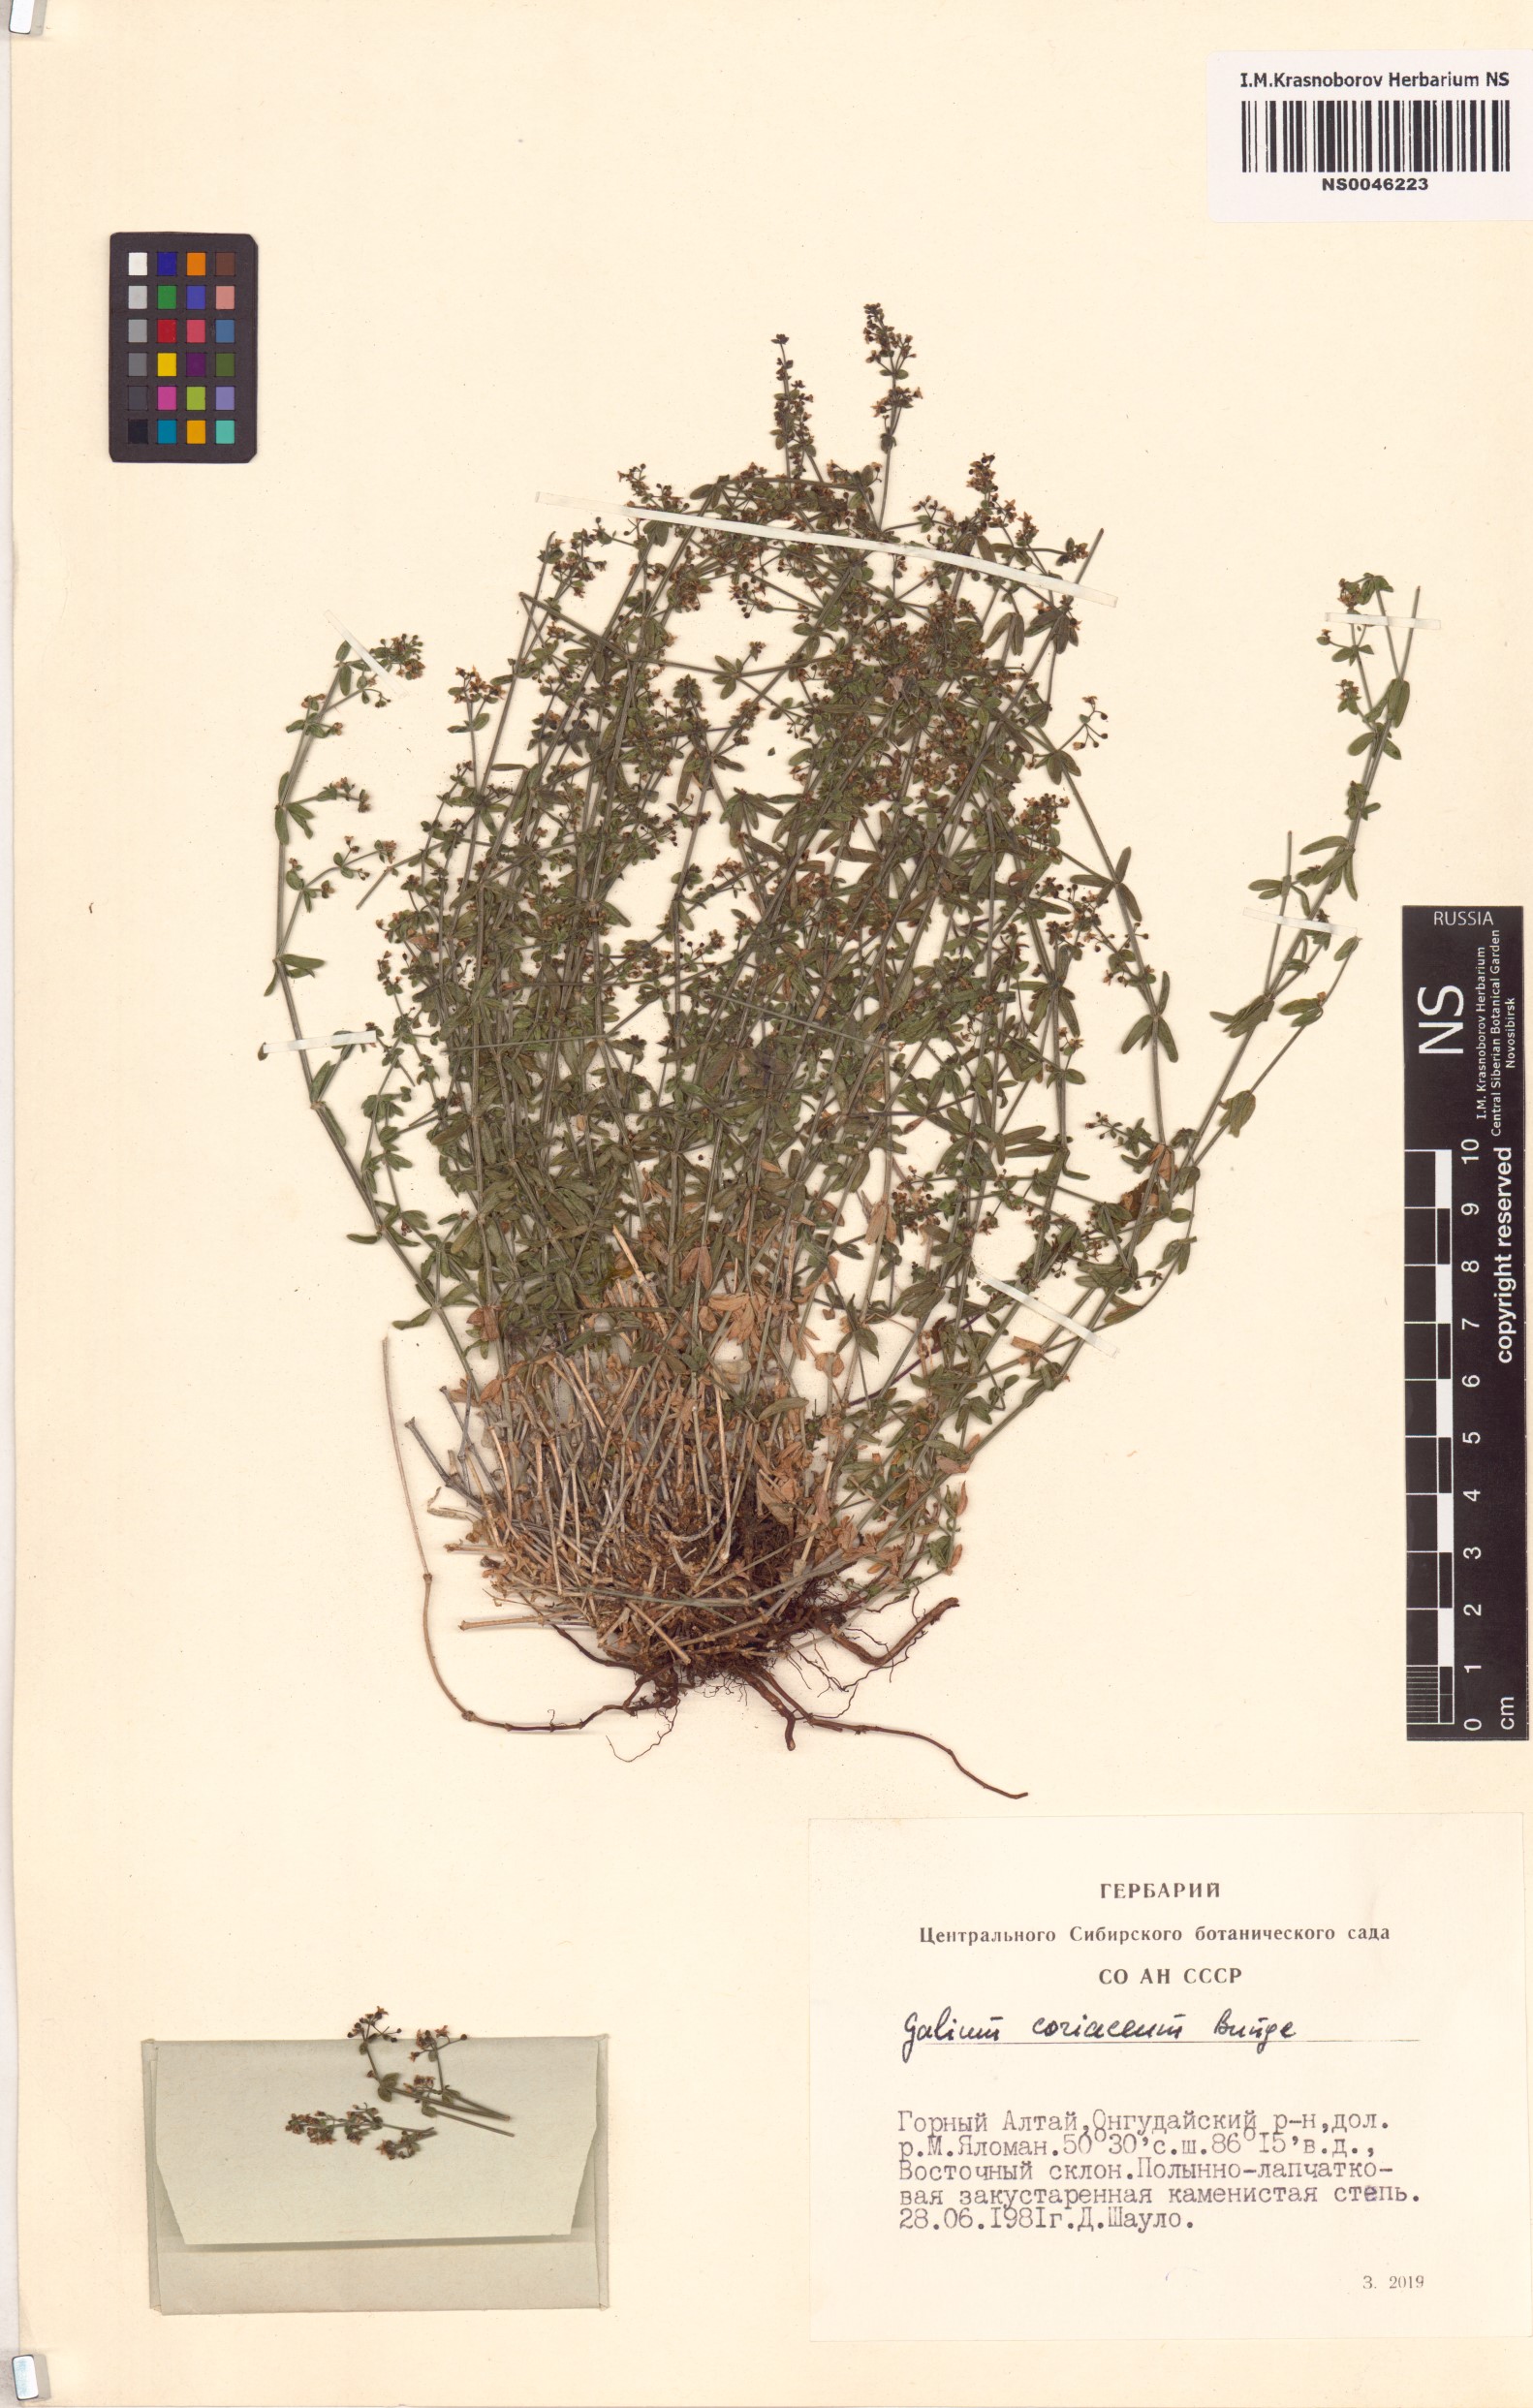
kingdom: Plantae
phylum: Tracheophyta
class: Magnoliopsida
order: Gentianales
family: Rubiaceae
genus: Galium
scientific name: Galium coriaceum
